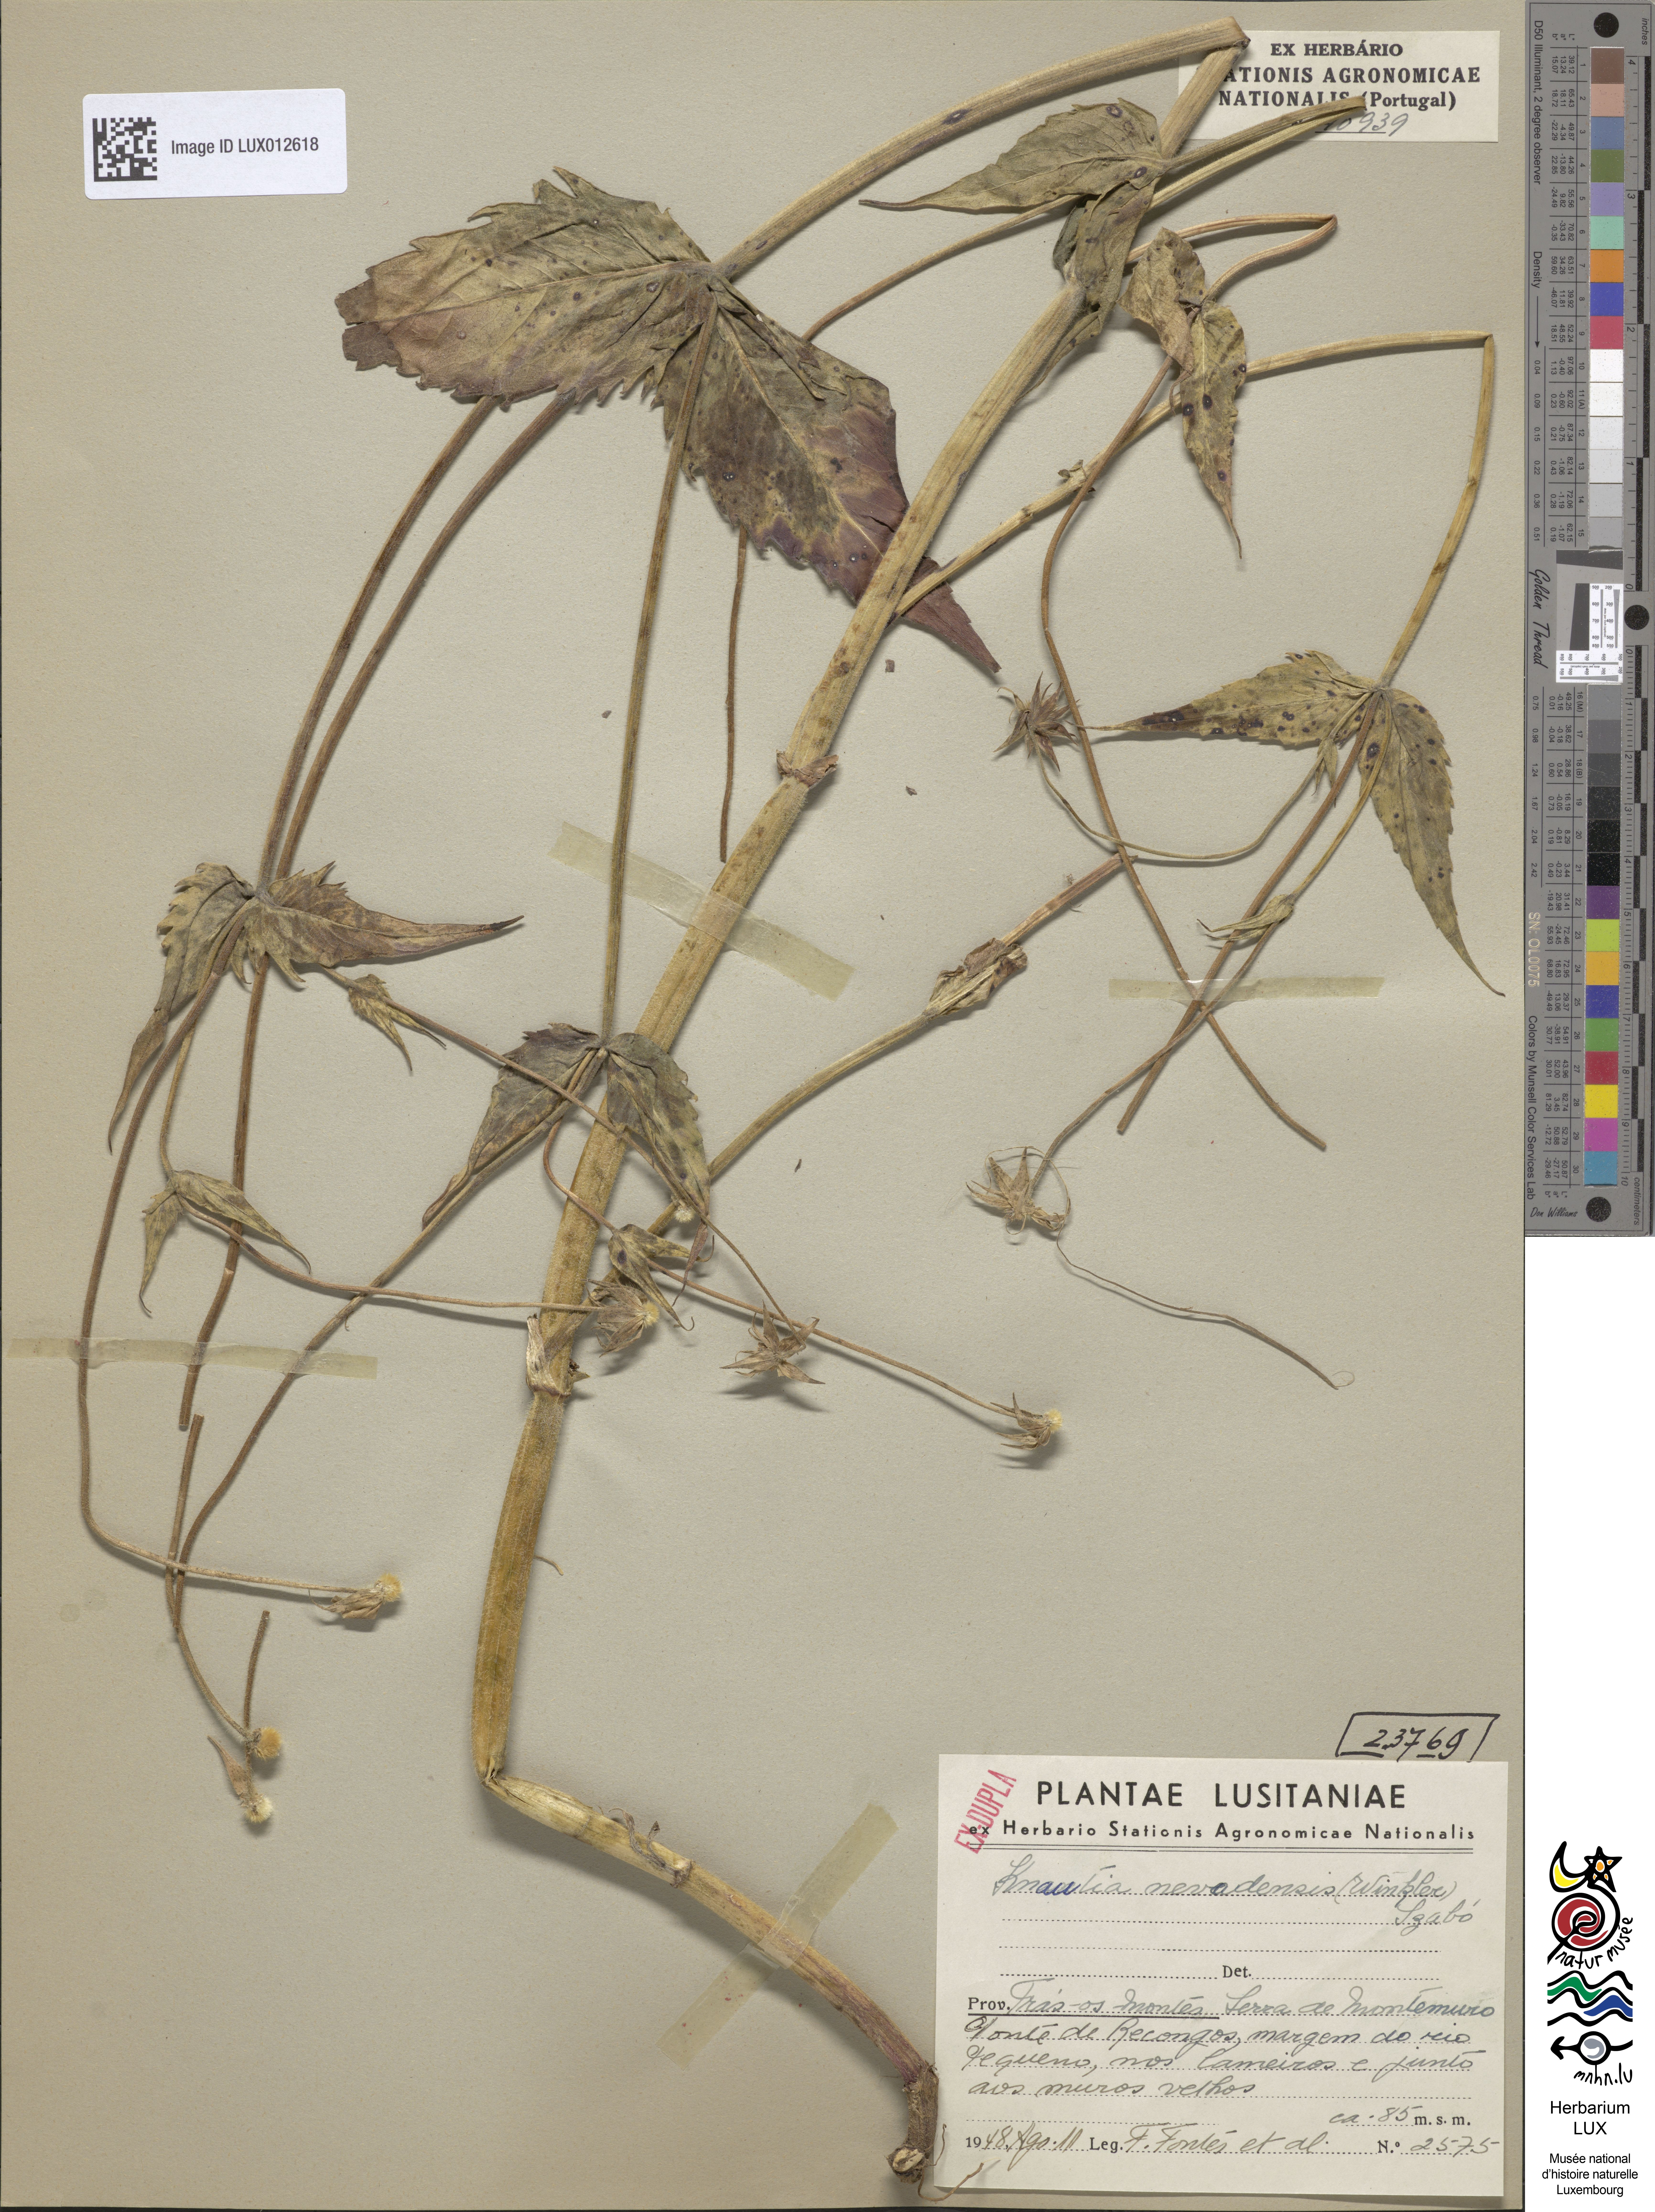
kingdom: Plantae
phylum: Tracheophyta
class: Magnoliopsida
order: Dipsacales
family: Caprifoliaceae
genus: Knautia
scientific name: Knautia nevadensis
